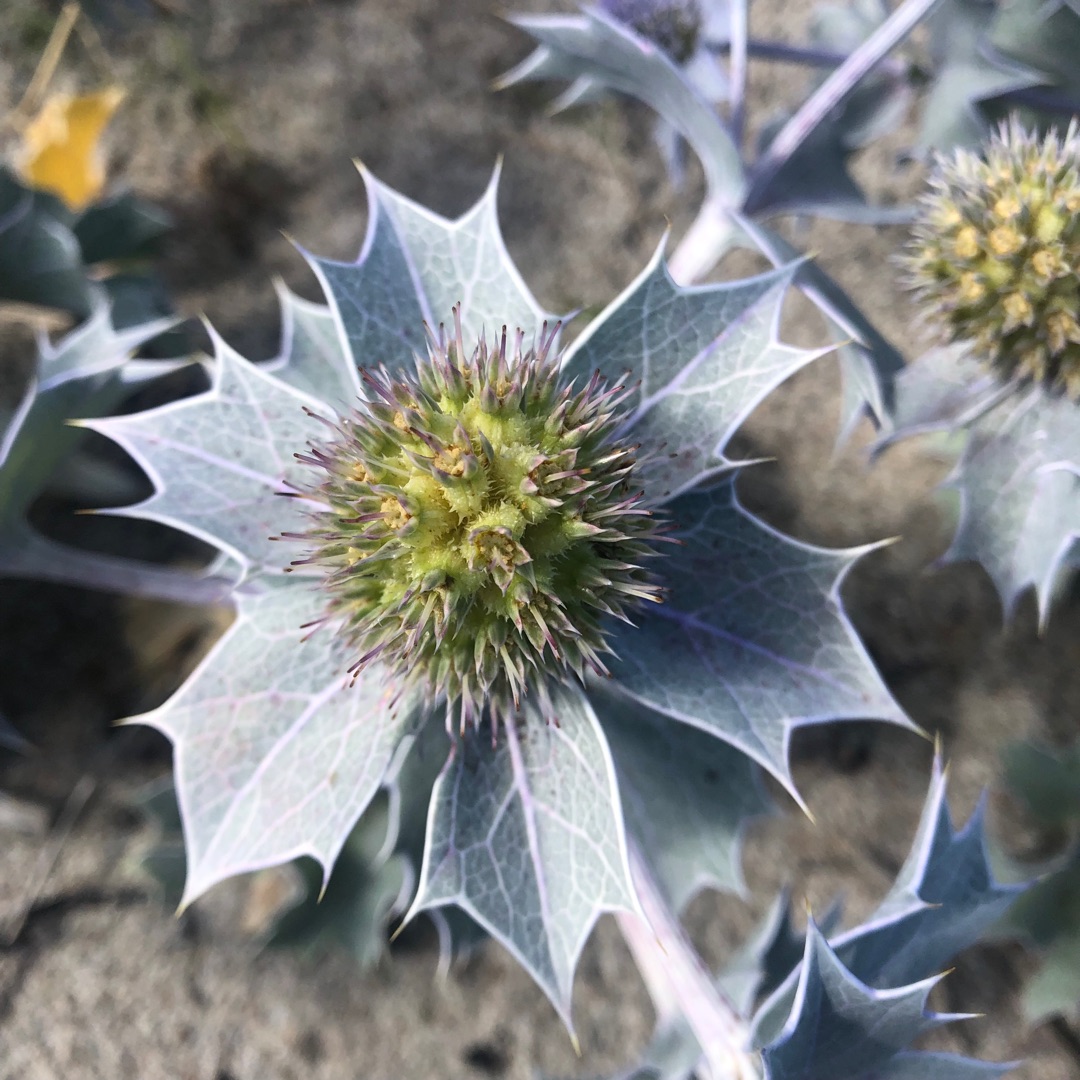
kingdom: Plantae
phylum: Tracheophyta
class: Magnoliopsida
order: Apiales
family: Apiaceae
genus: Eryngium
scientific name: Eryngium maritimum
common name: Strand-mandstro
